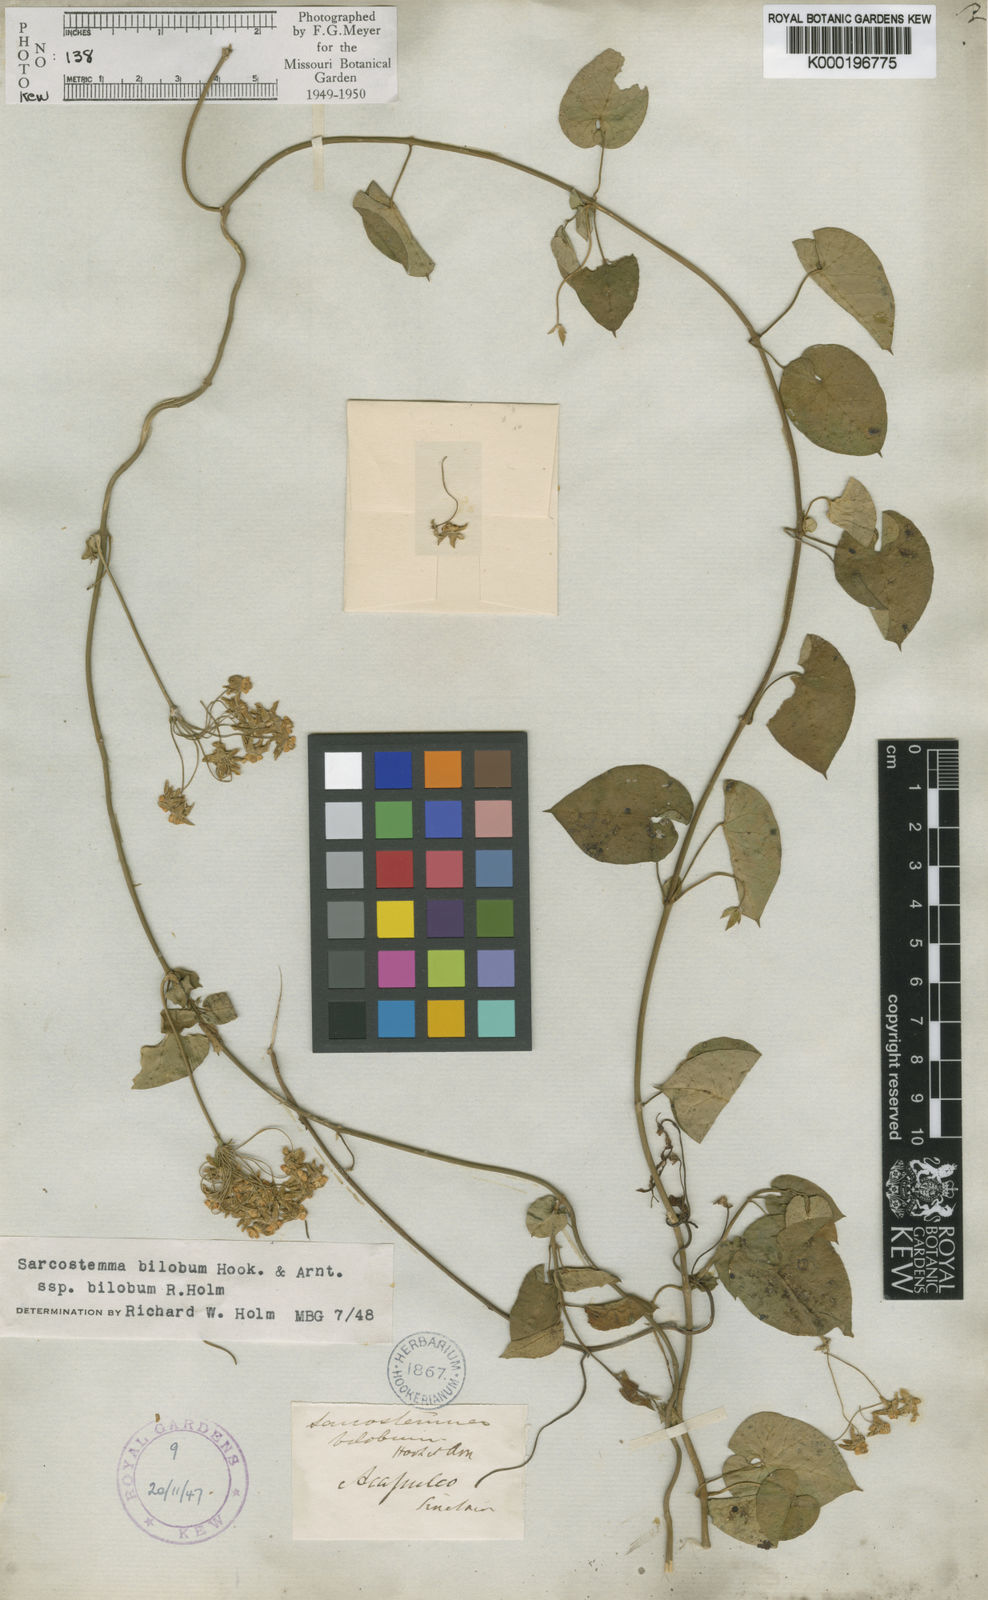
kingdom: Plantae
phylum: Tracheophyta
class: Magnoliopsida
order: Gentianales
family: Apocynaceae
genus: Funastrum
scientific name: Funastrum bilobum
